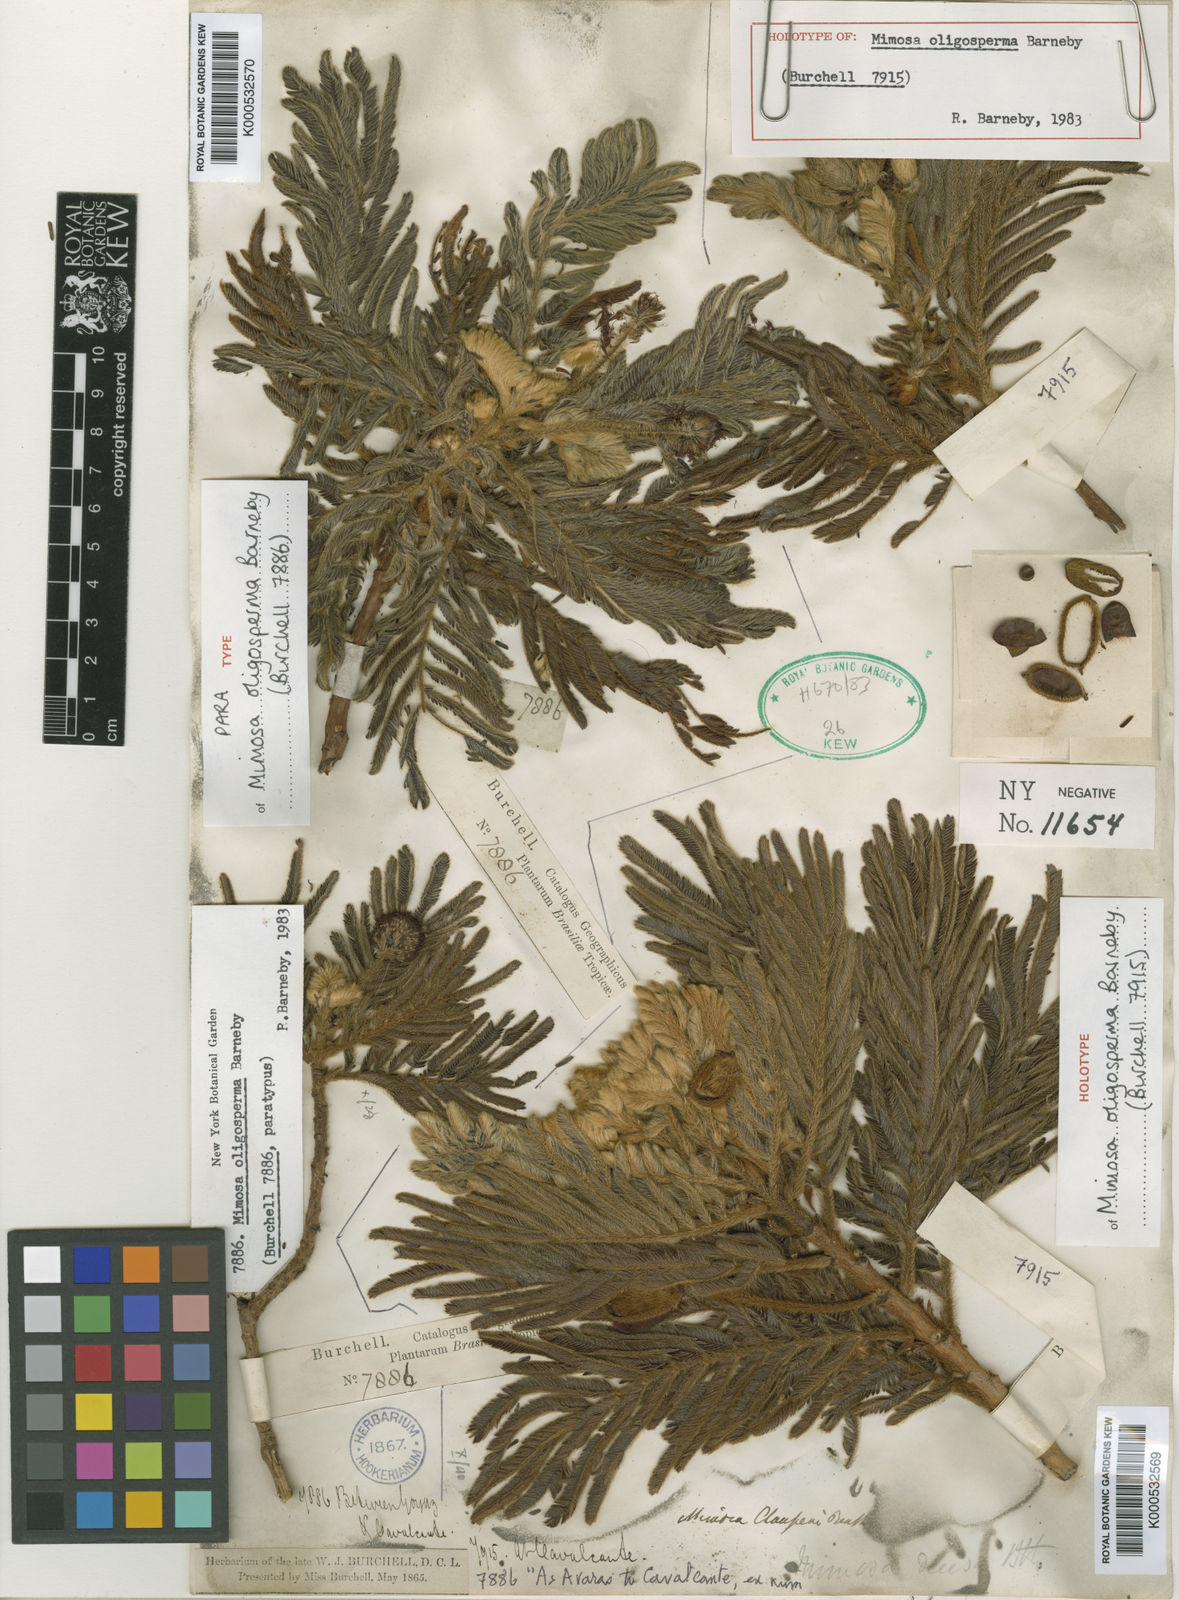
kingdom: Plantae
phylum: Tracheophyta
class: Magnoliopsida
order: Fabales
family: Fabaceae
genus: Mimosa
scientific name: Mimosa oligosperma
